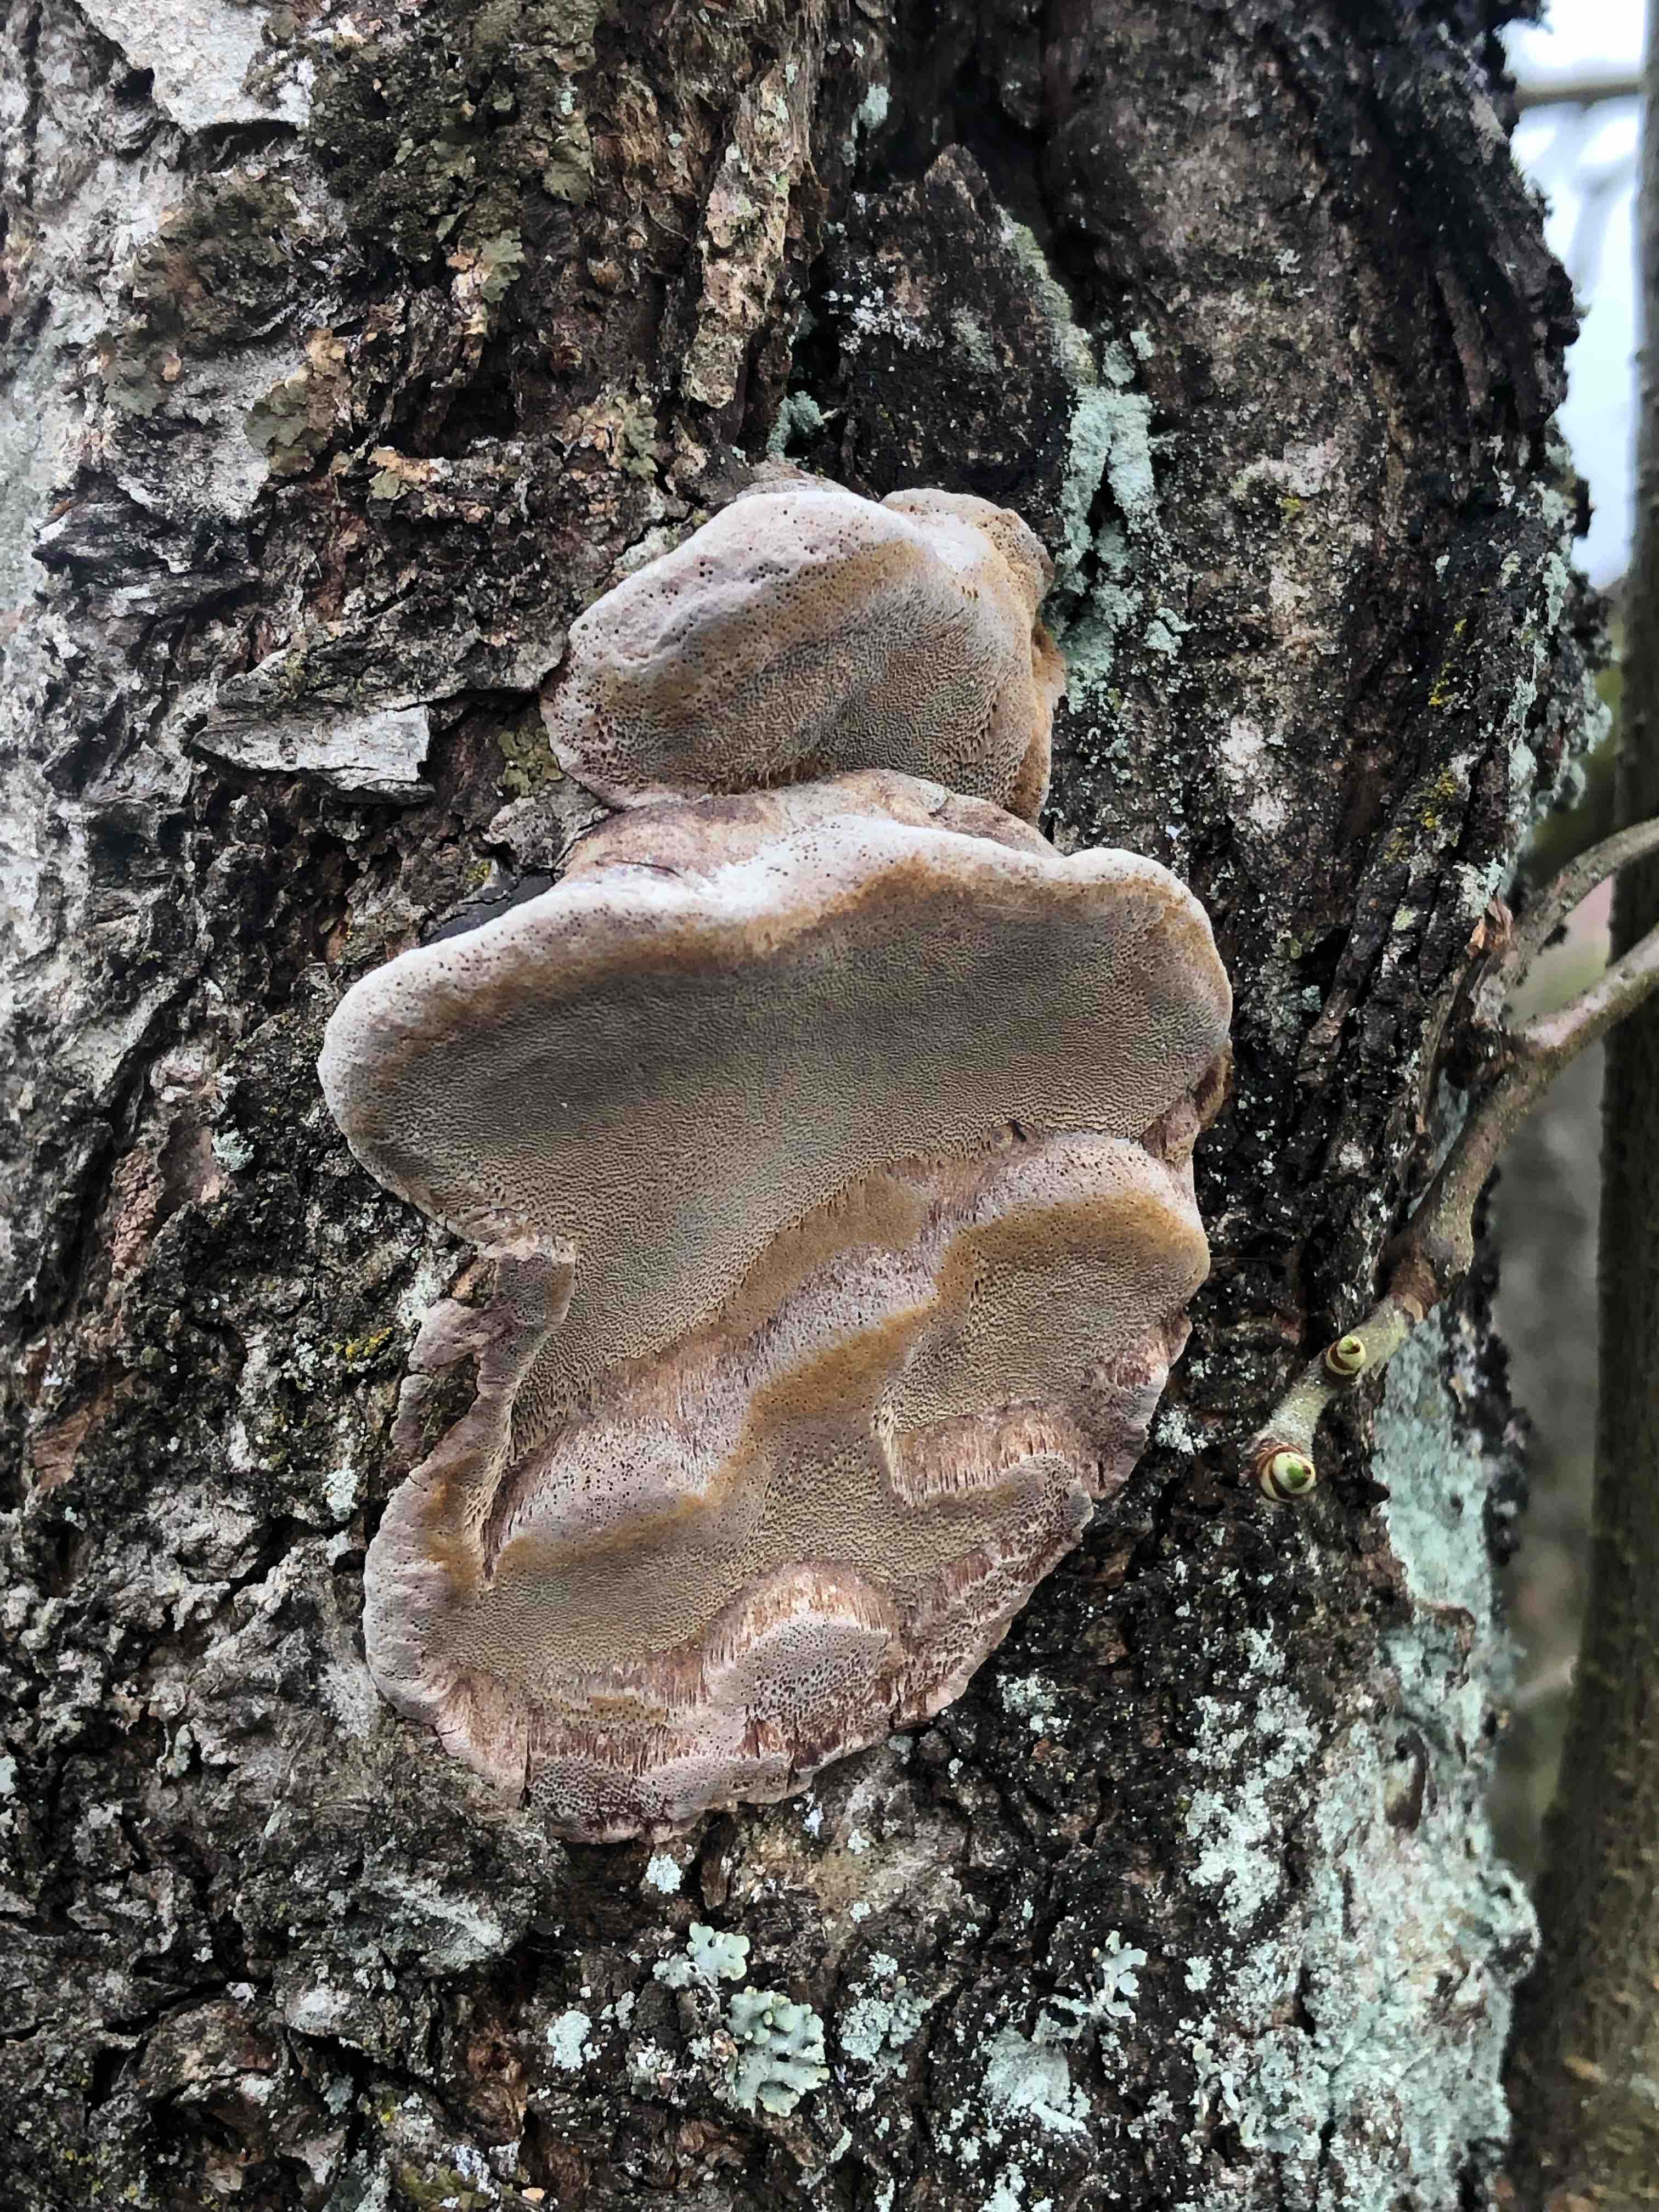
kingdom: Fungi
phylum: Basidiomycota
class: Agaricomycetes
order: Hymenochaetales
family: Hymenochaetaceae
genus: Phellinus
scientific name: Phellinus pomaceus
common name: blomme-ildporesvamp
